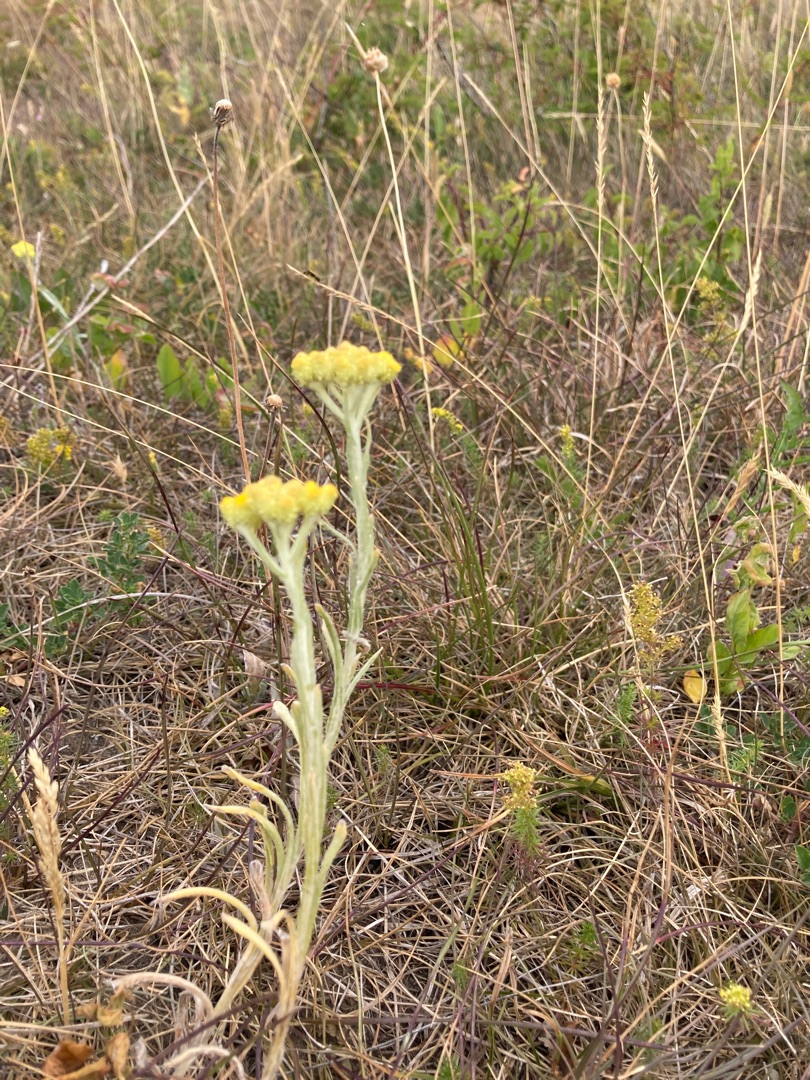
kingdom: Plantae
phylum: Tracheophyta
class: Magnoliopsida
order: Asterales
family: Asteraceae
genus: Helichrysum
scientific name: Helichrysum arenarium
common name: Gul evighedsblomst
